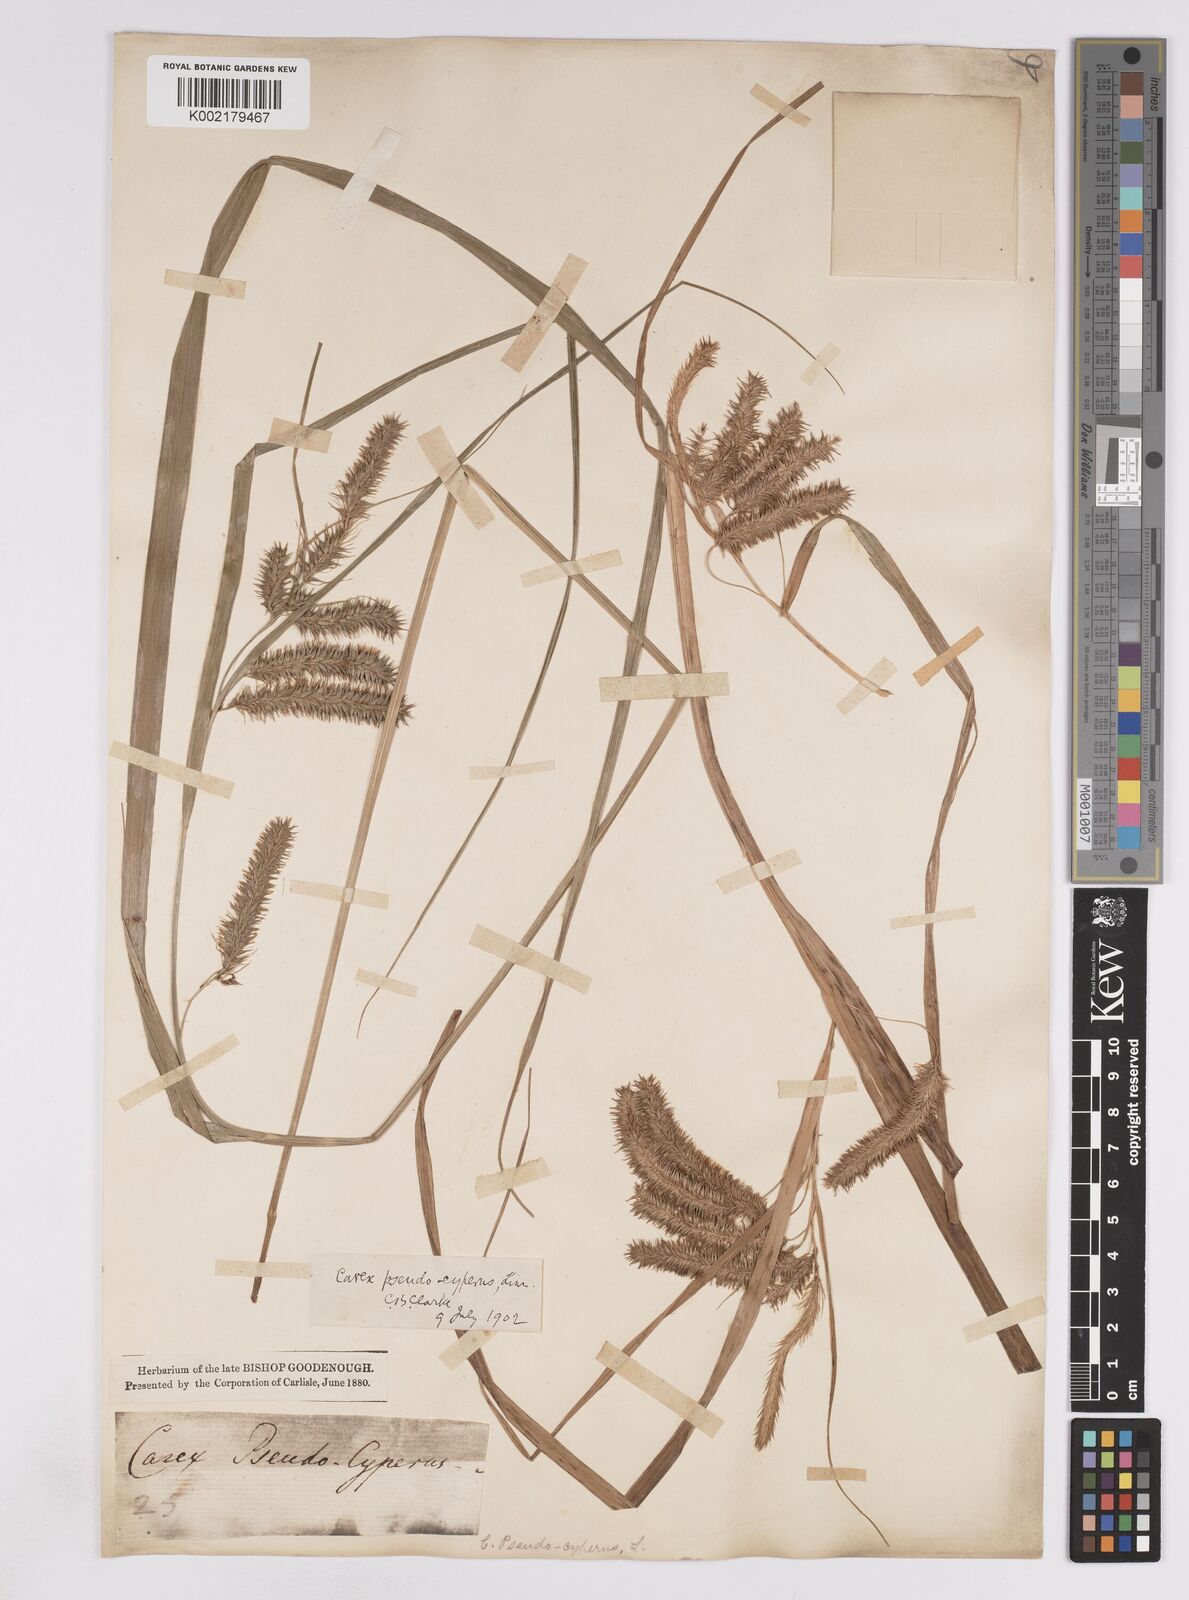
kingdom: Plantae
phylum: Tracheophyta
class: Liliopsida
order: Poales
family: Cyperaceae
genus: Carex
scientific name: Carex pseudocyperus
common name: Cyperus sedge
